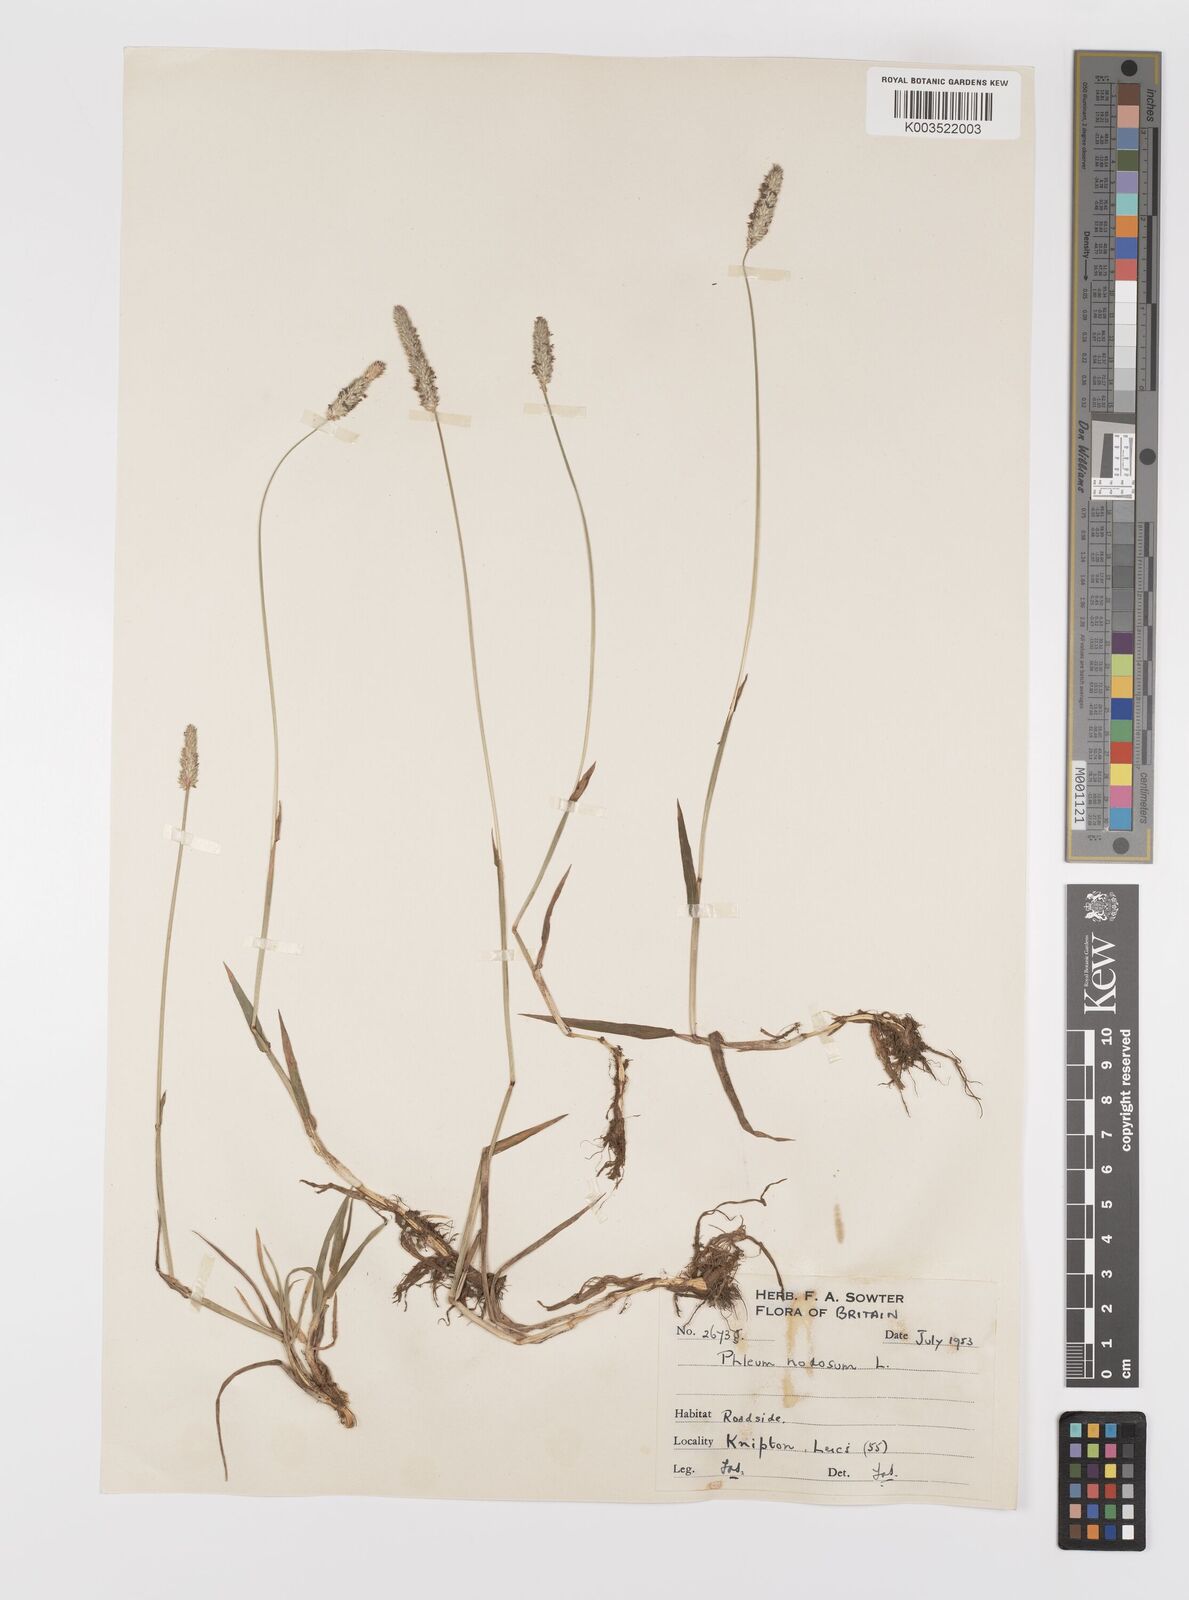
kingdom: Plantae
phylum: Tracheophyta
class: Liliopsida
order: Poales
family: Poaceae
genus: Phleum
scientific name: Phleum bertolonii
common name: Smaller cat's-tail
